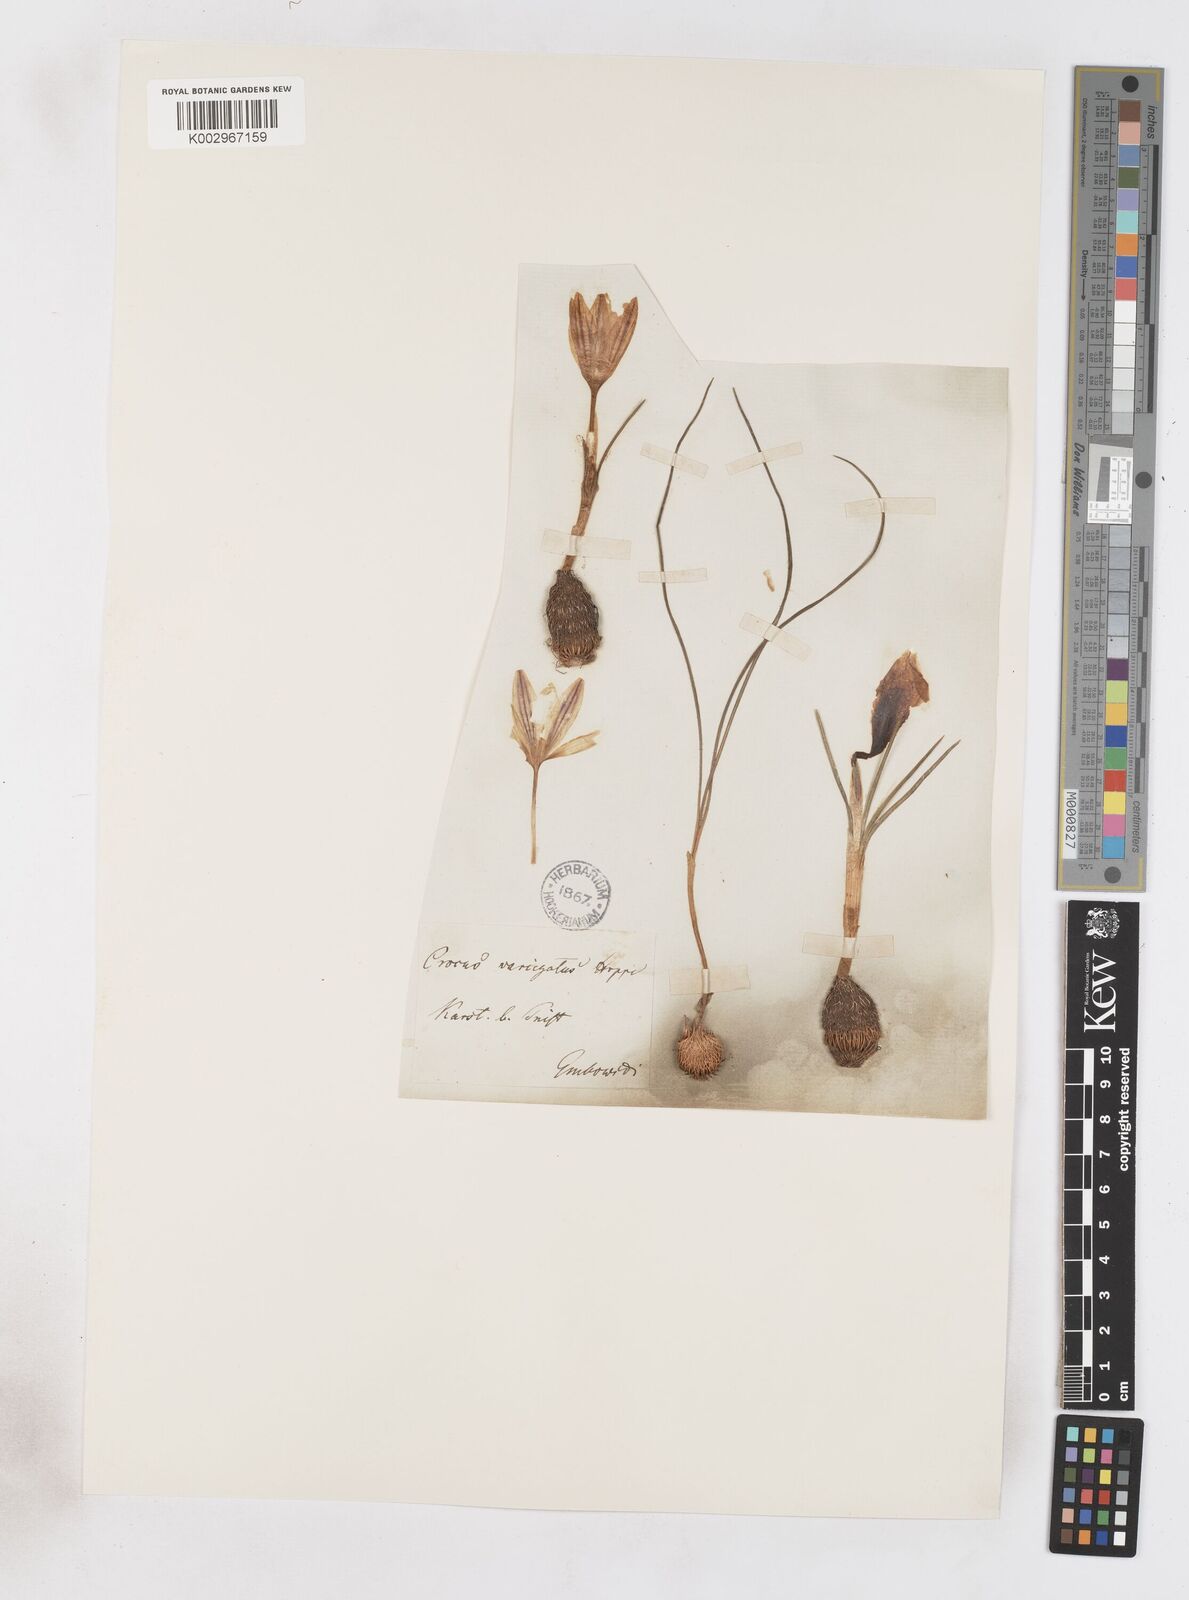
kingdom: Plantae
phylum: Tracheophyta
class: Liliopsida
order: Asparagales
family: Iridaceae
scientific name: Iridaceae
